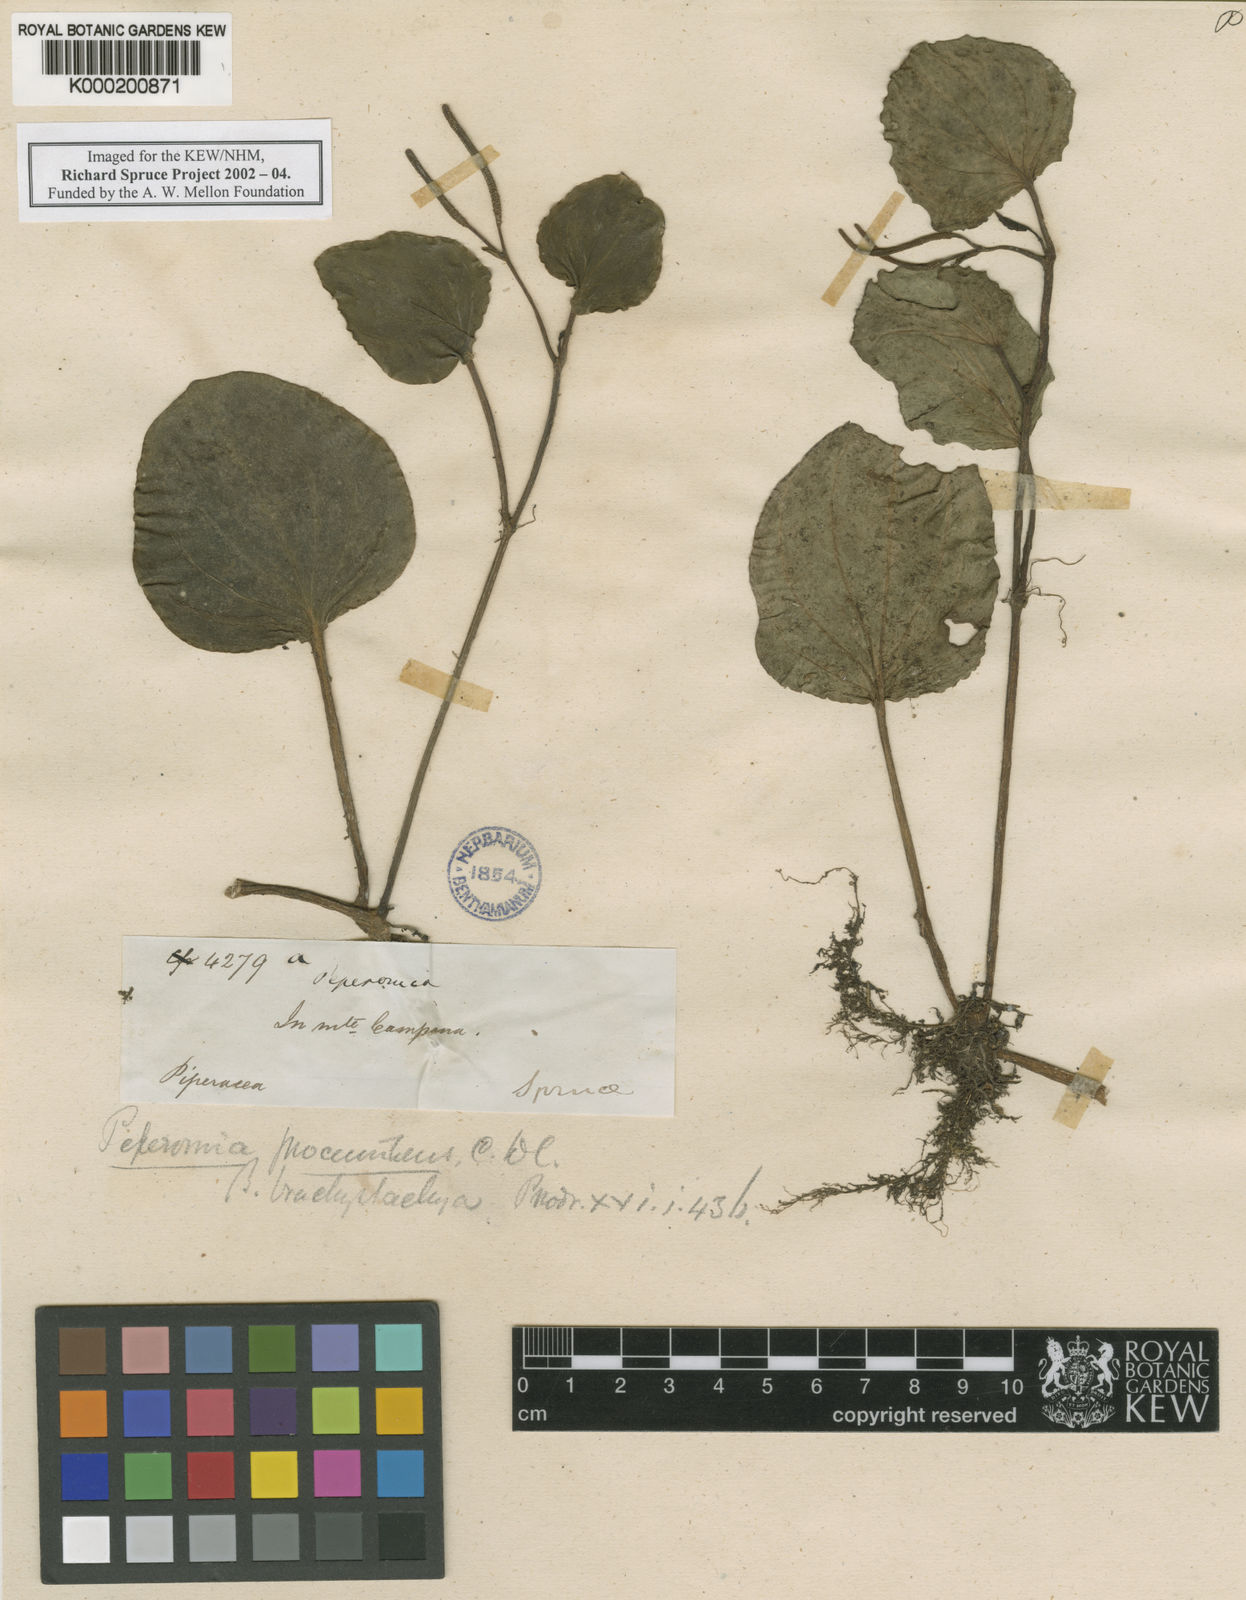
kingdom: Plantae
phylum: Tracheophyta
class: Magnoliopsida
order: Piperales
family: Piperaceae
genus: Peperomia
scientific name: Peperomia procumbens
